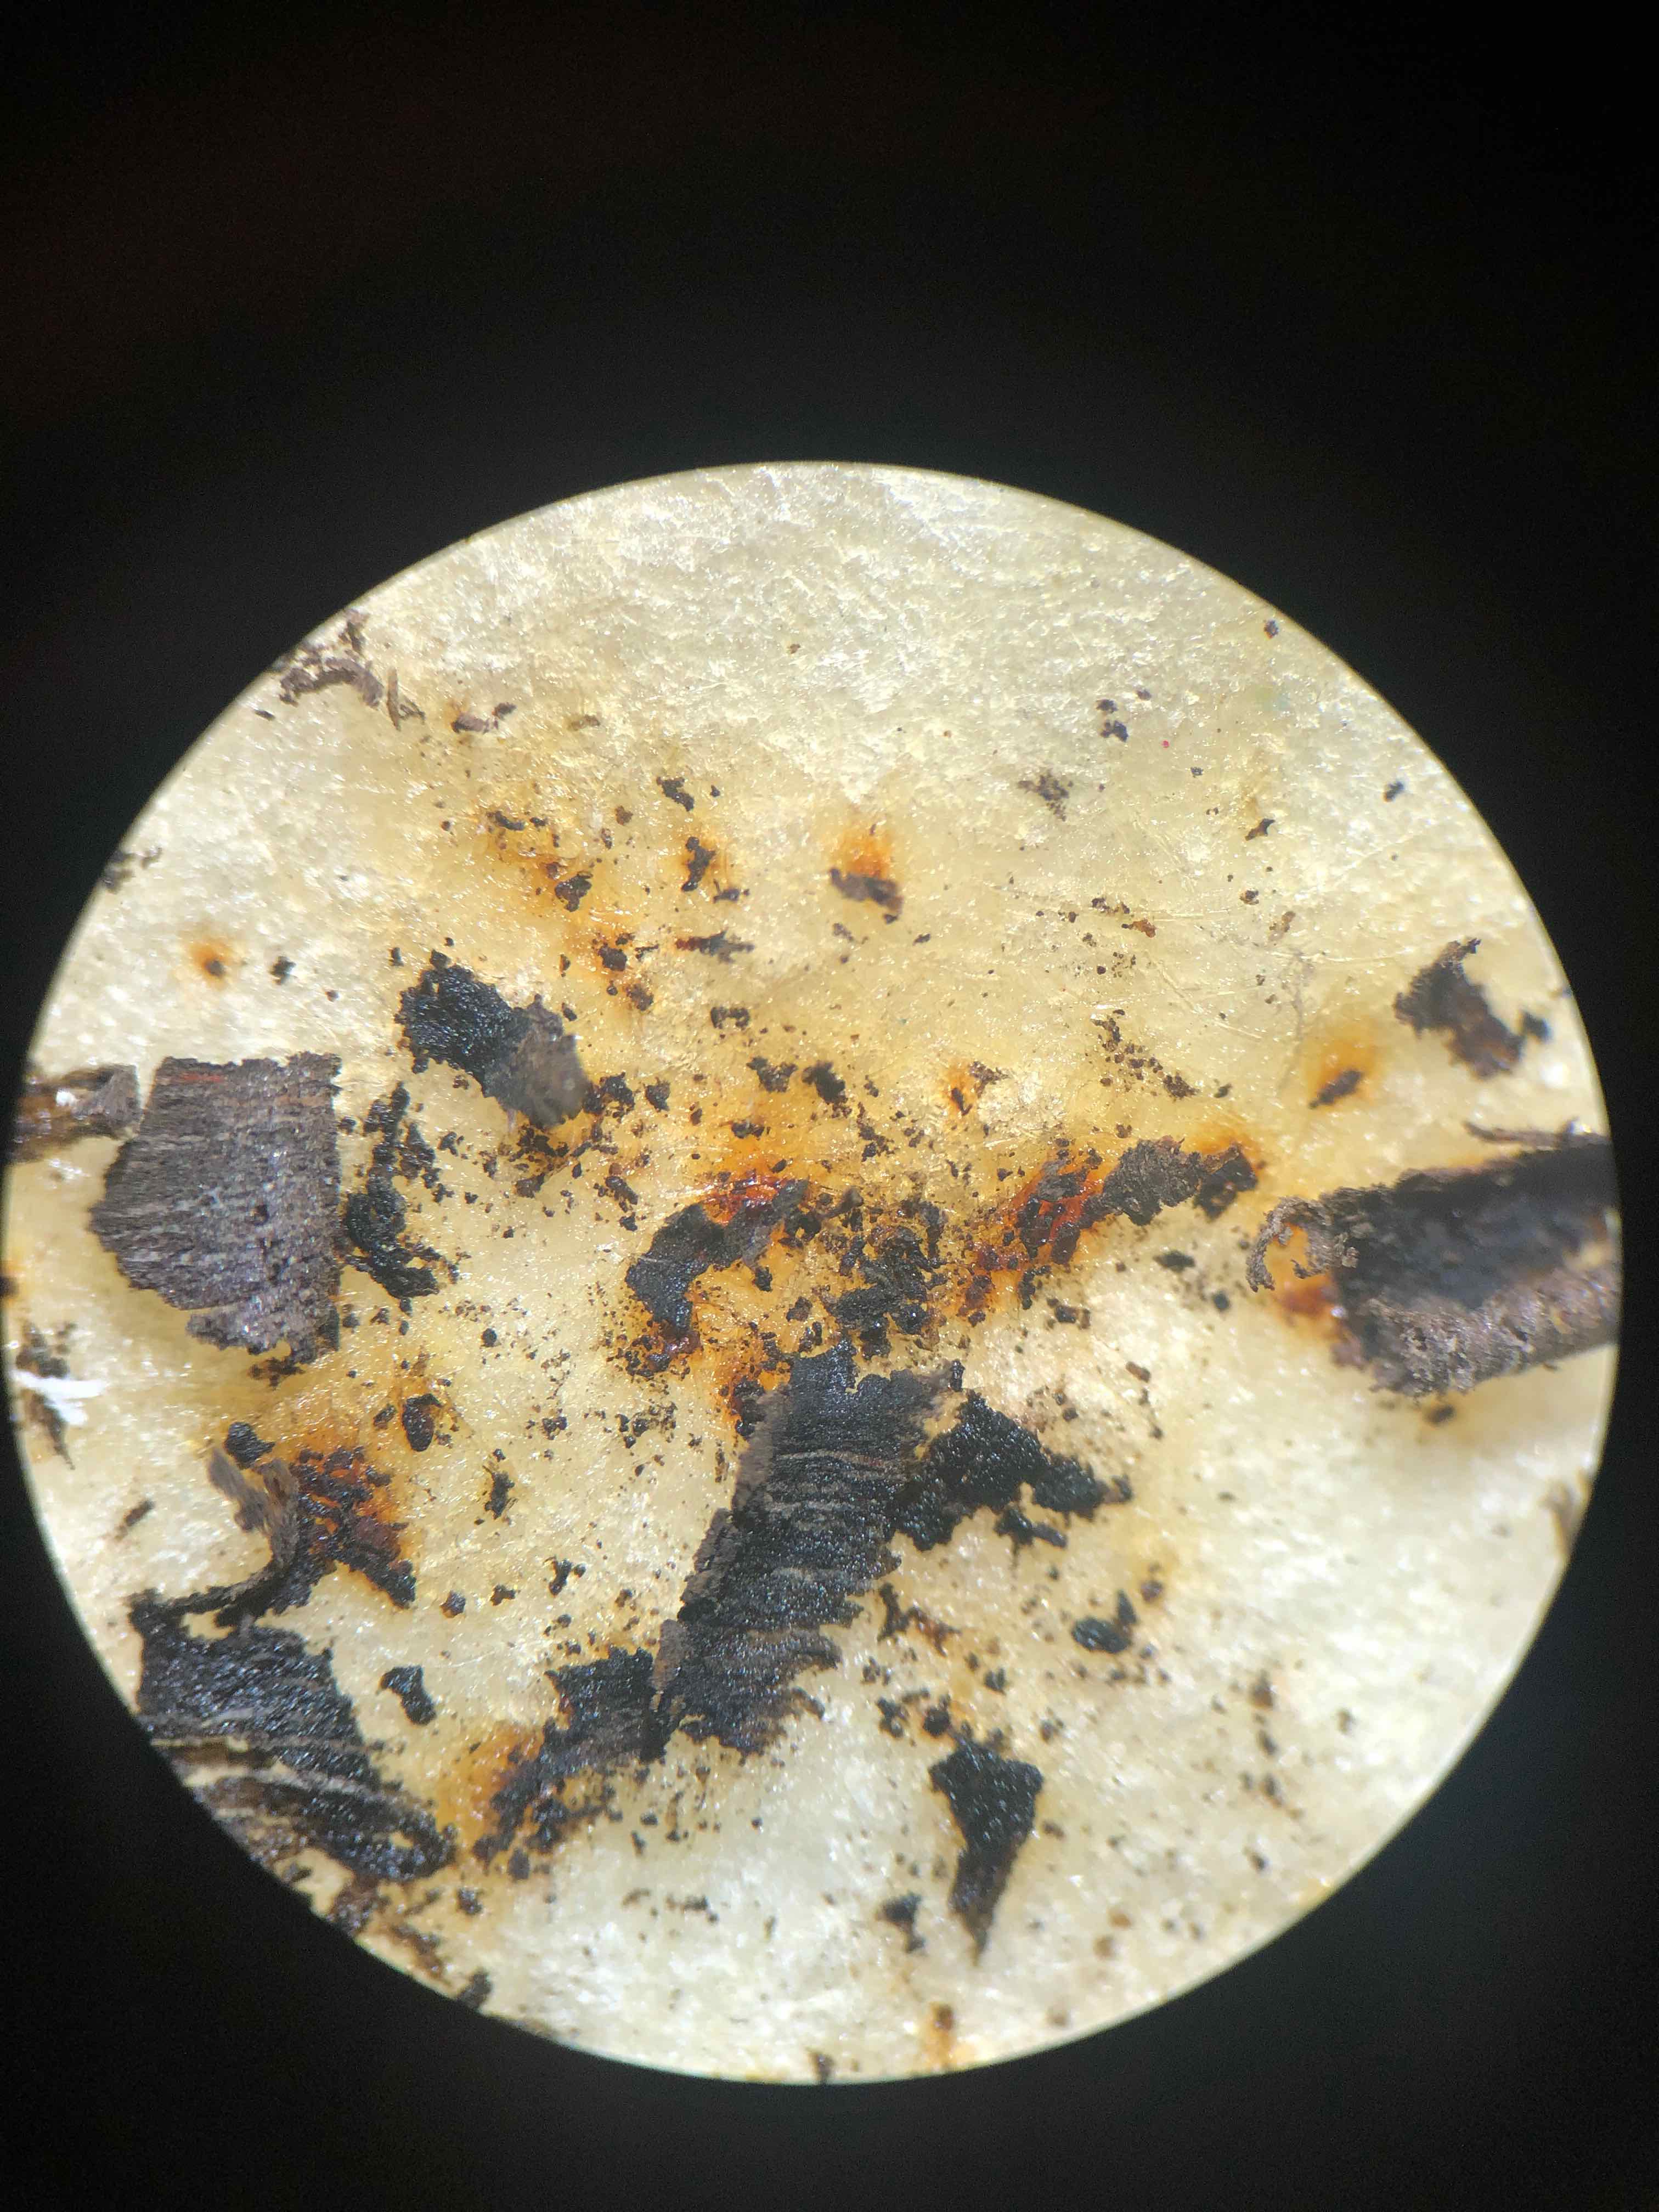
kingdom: Fungi
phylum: Ascomycota
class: Sordariomycetes
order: Xylariales
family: Hypoxylaceae
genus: Hypoxylon
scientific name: Hypoxylon petriniae
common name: nedsænket kulbær
